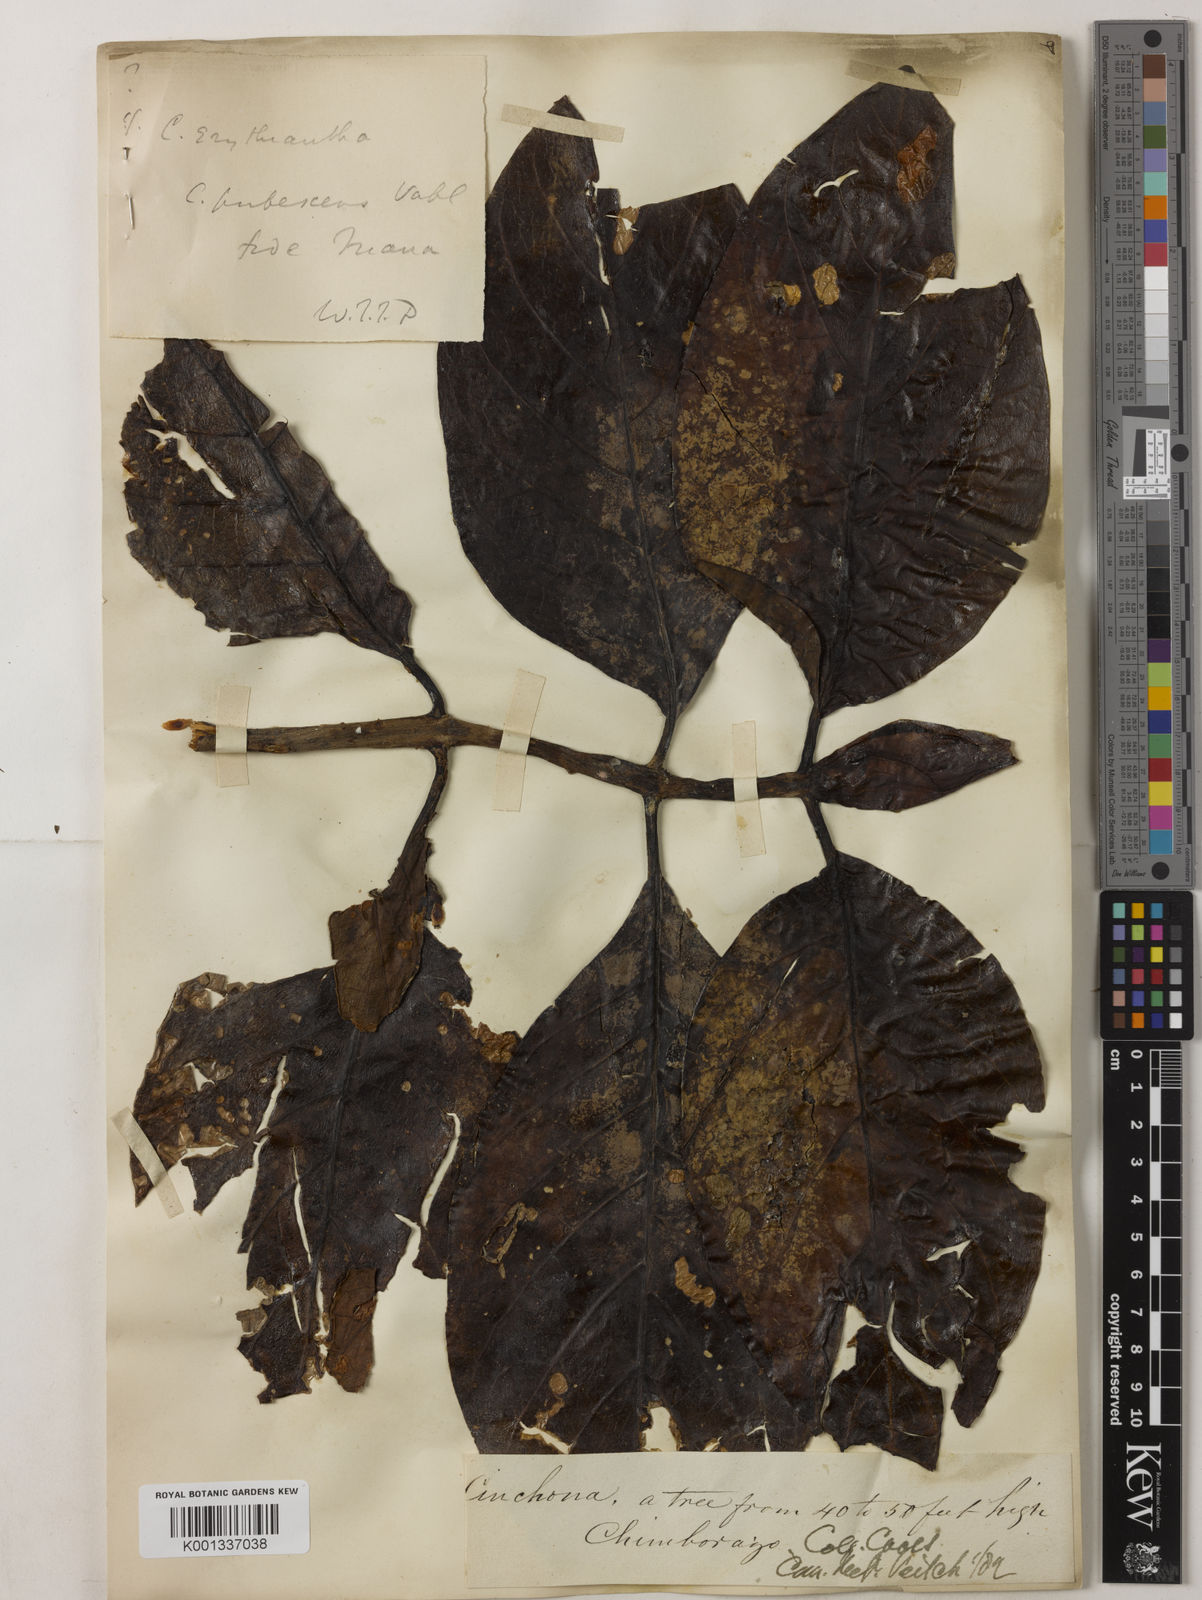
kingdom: Plantae
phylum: Tracheophyta
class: Magnoliopsida
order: Gentianales
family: Rubiaceae
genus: Cinchona
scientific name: Cinchona pubescens
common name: Quinine
